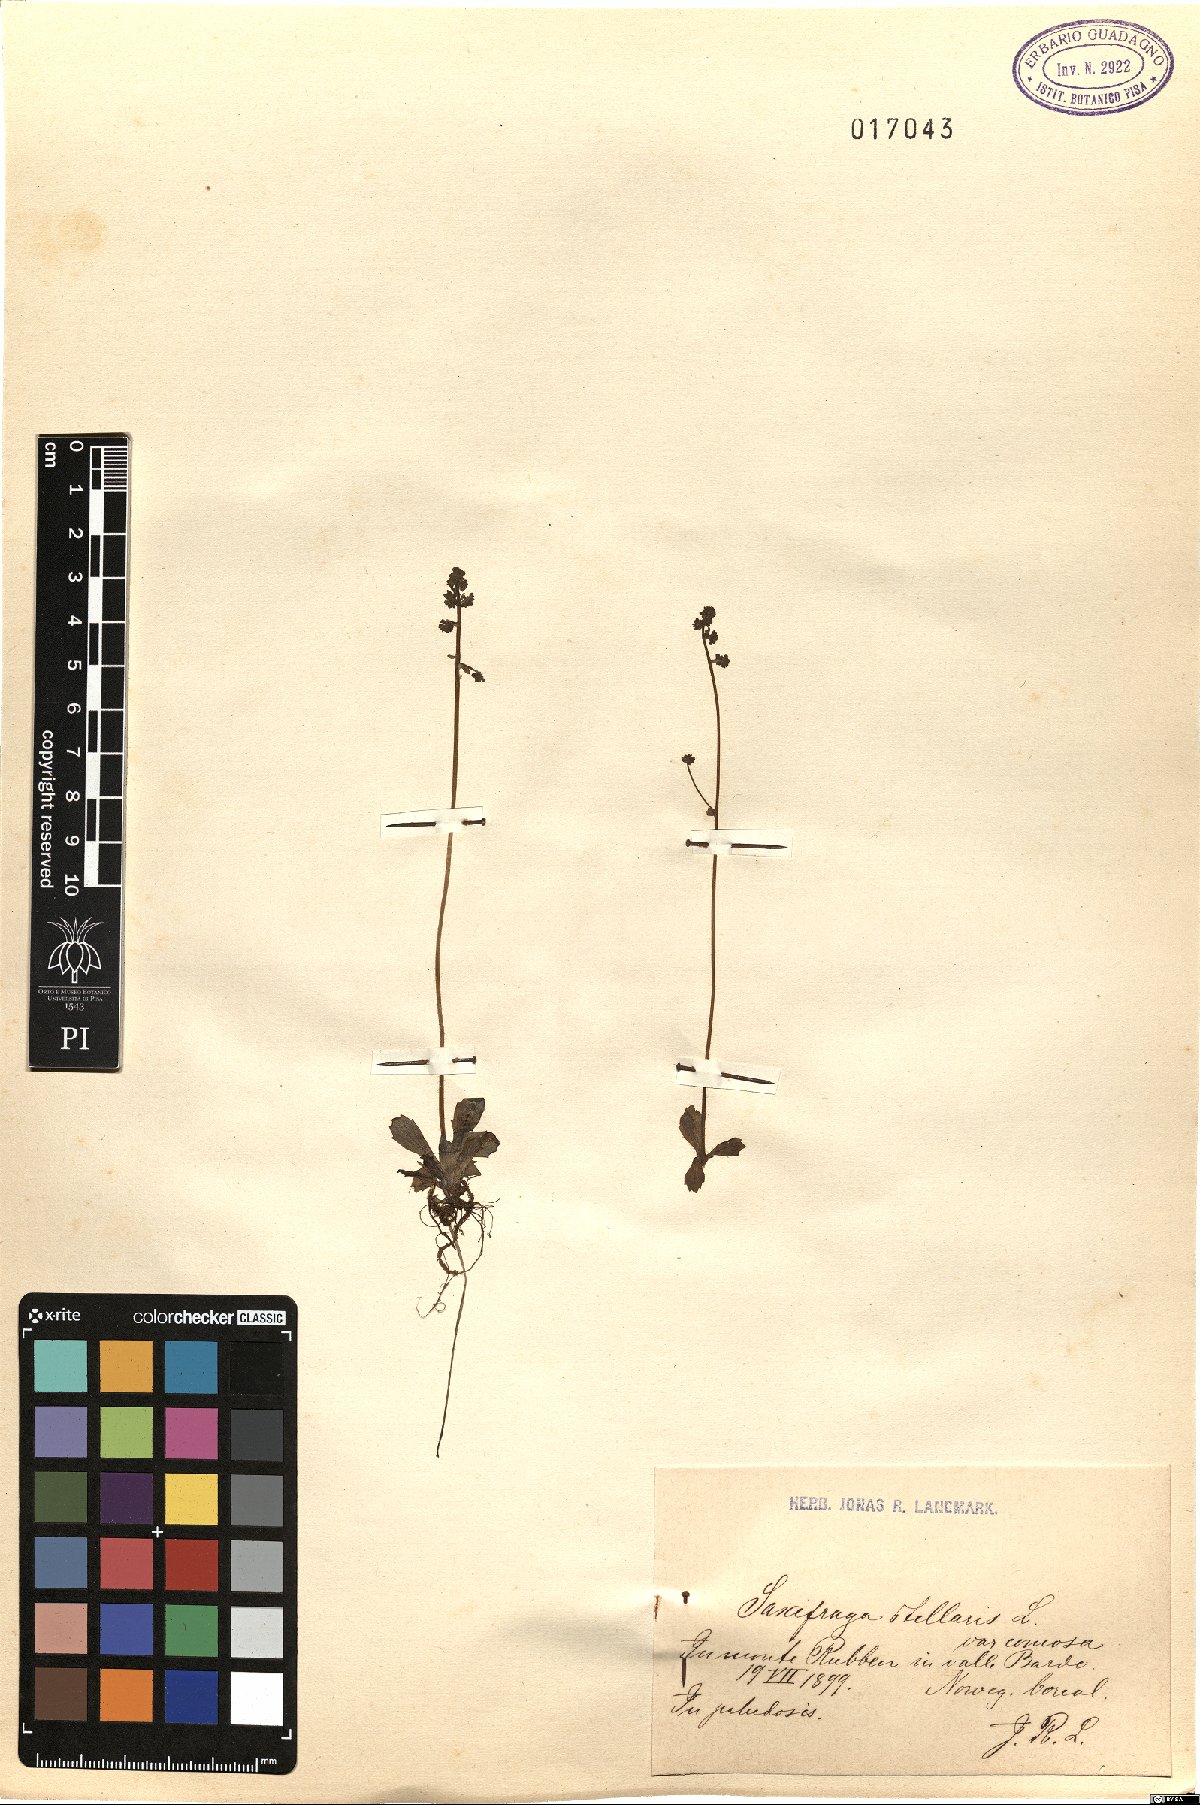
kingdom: Plantae
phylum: Tracheophyta
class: Magnoliopsida
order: Saxifragales
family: Saxifragaceae
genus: Micranthes
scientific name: Micranthes foliolosa
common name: Leafystem saxifrage
